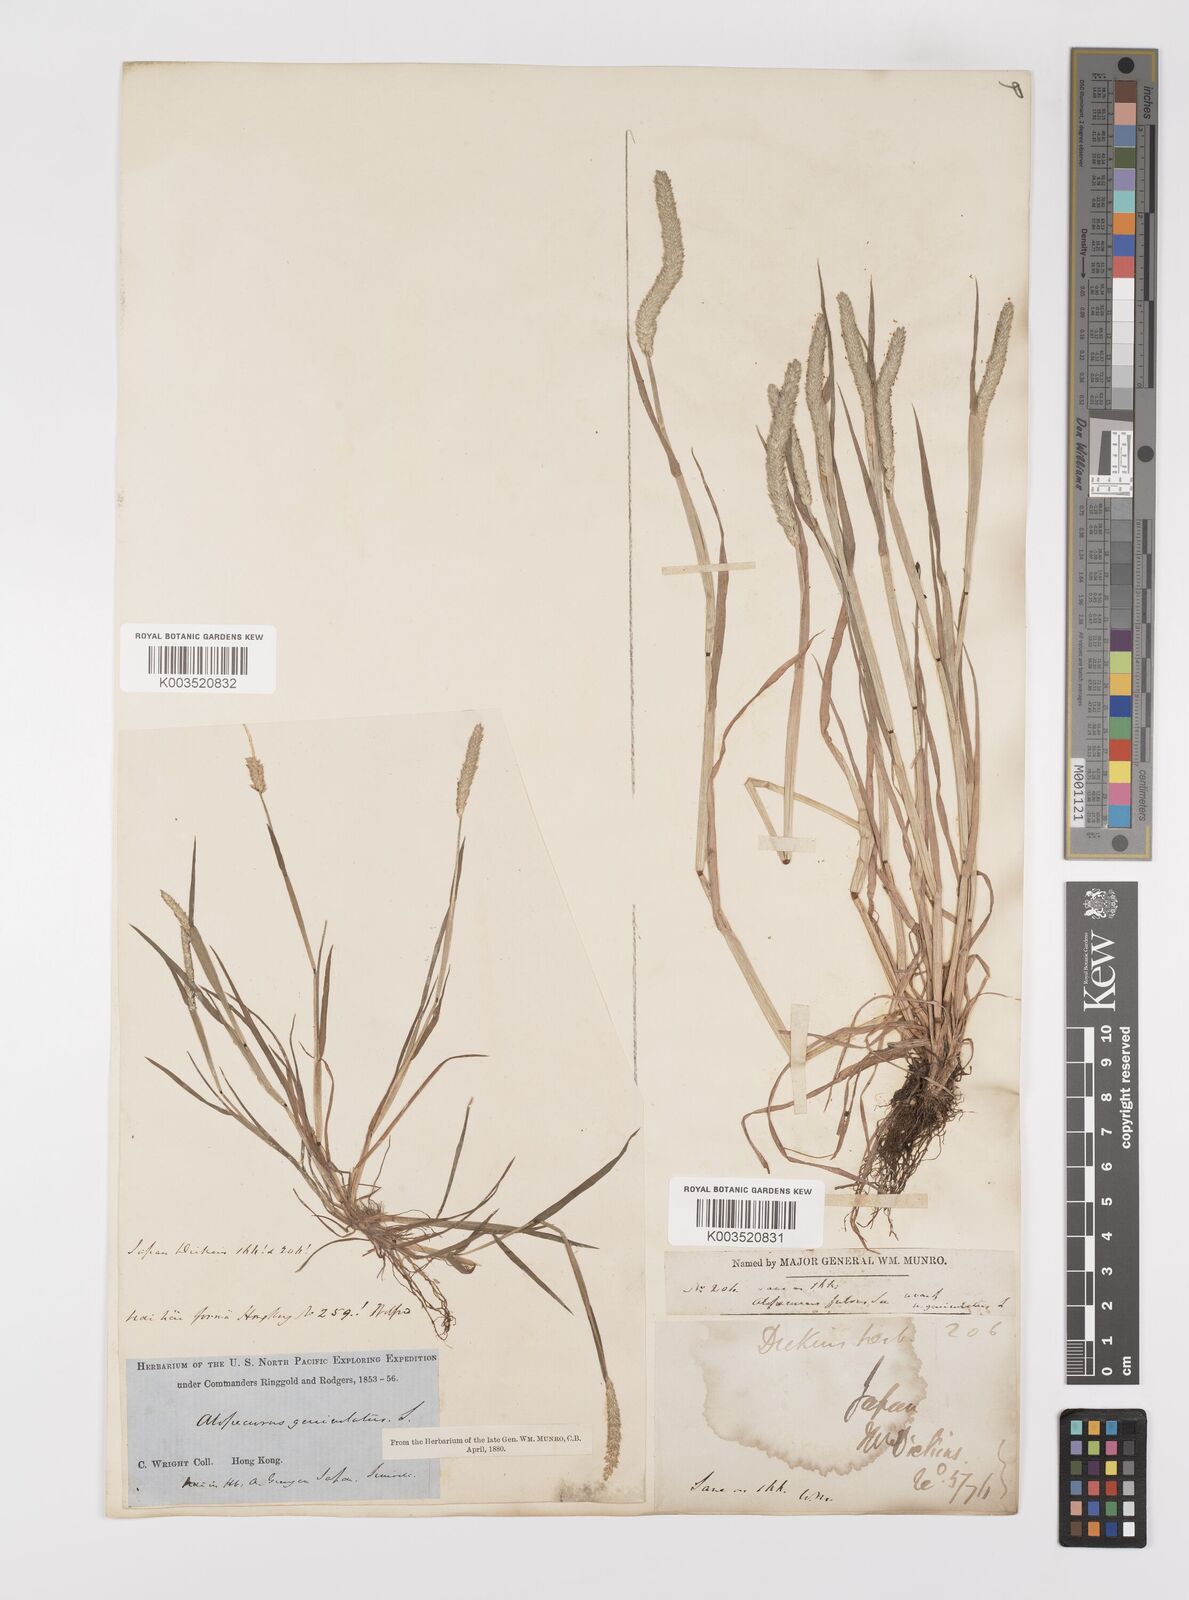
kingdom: Plantae
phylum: Tracheophyta
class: Liliopsida
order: Poales
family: Poaceae
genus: Alopecurus
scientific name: Alopecurus aequalis
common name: Orange foxtail
